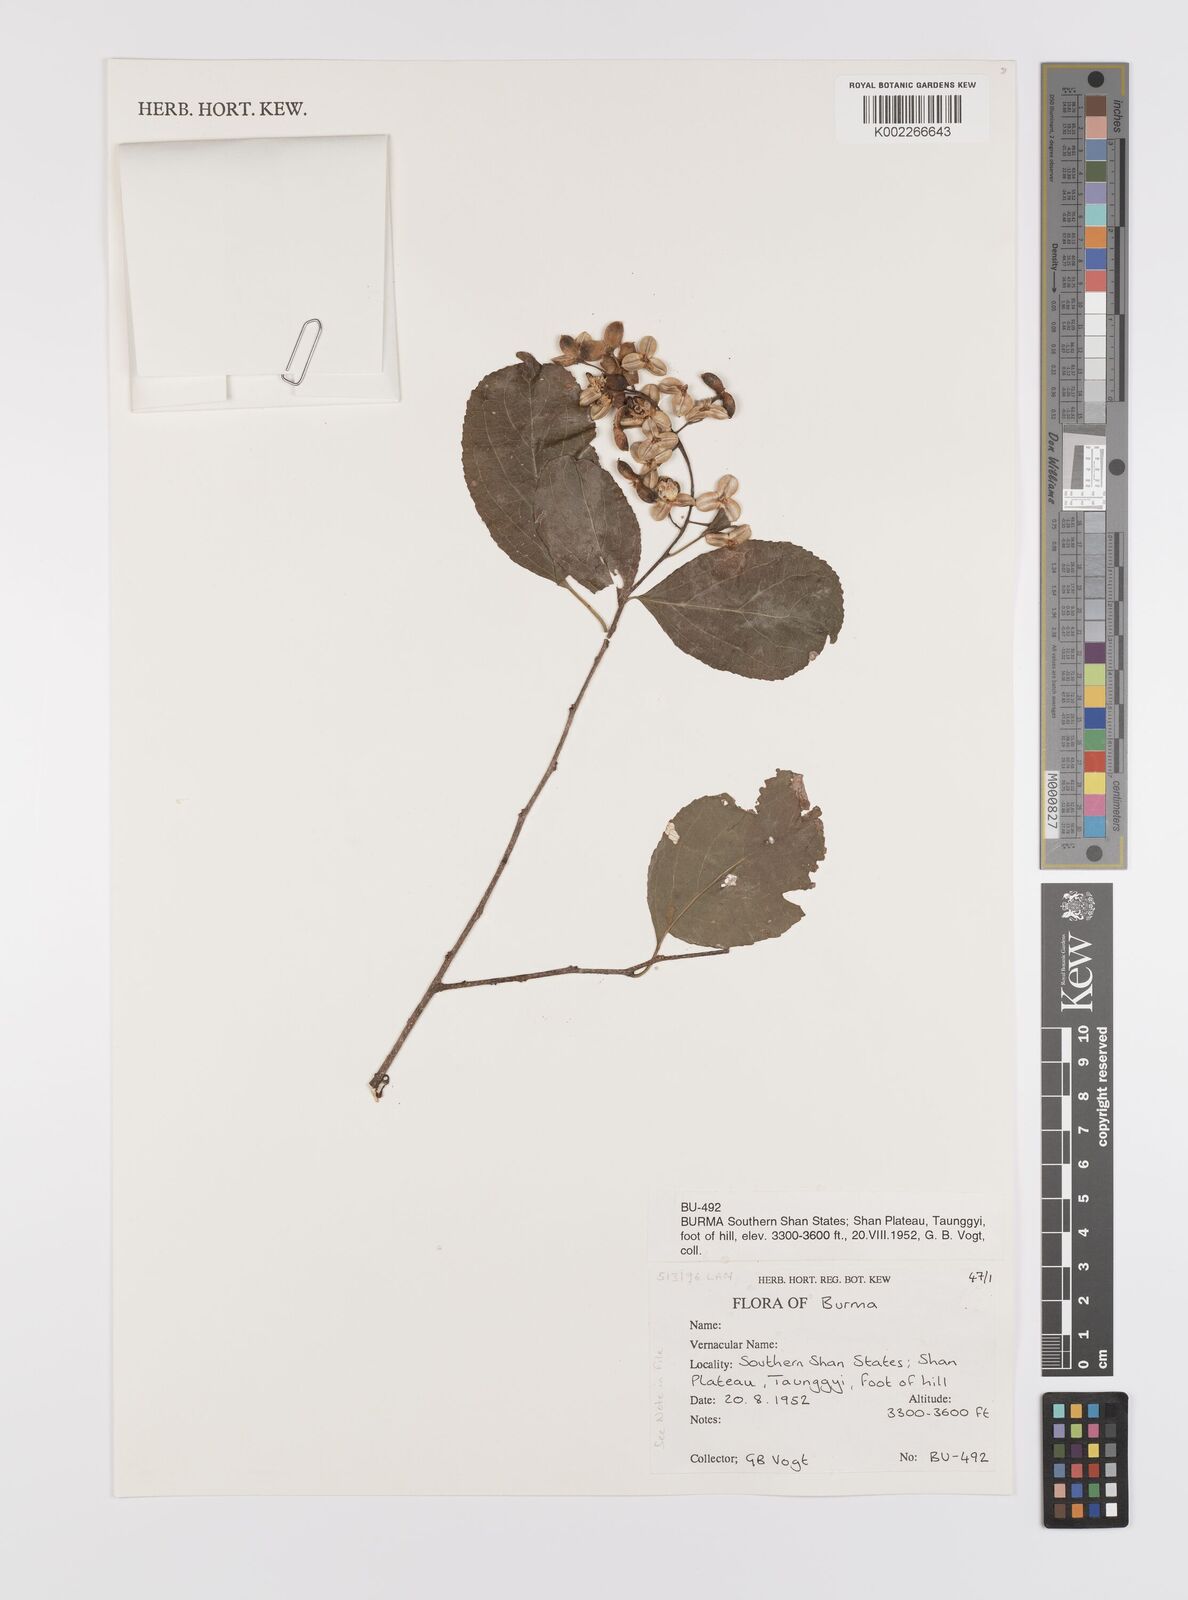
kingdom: Plantae
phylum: Tracheophyta
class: Magnoliopsida
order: Celastrales
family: Celastraceae
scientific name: Celastraceae
